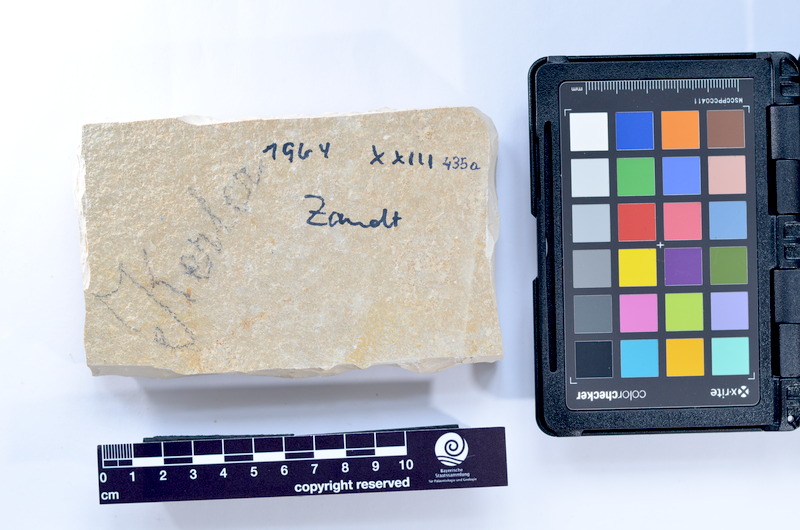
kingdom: Animalia
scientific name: Animalia
